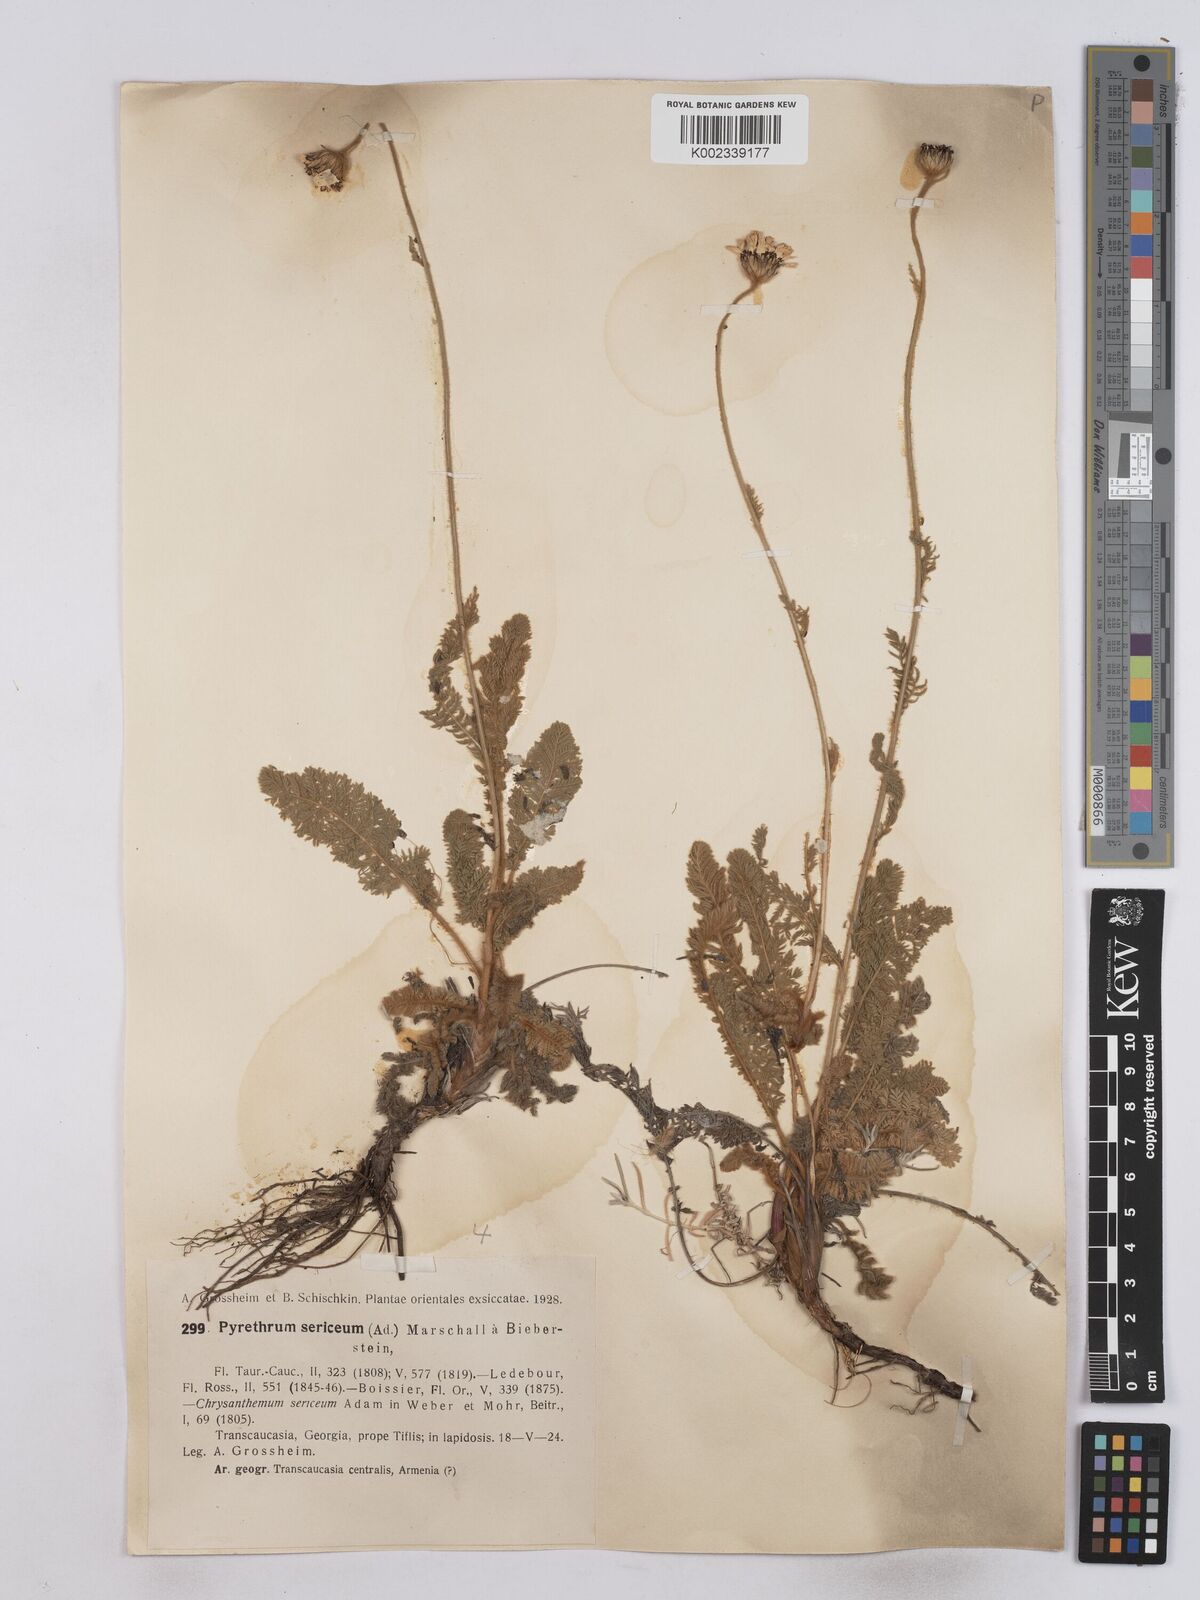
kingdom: Plantae
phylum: Tracheophyta
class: Magnoliopsida
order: Asterales
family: Asteraceae
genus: Tanacetum
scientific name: Tanacetum sericeum
